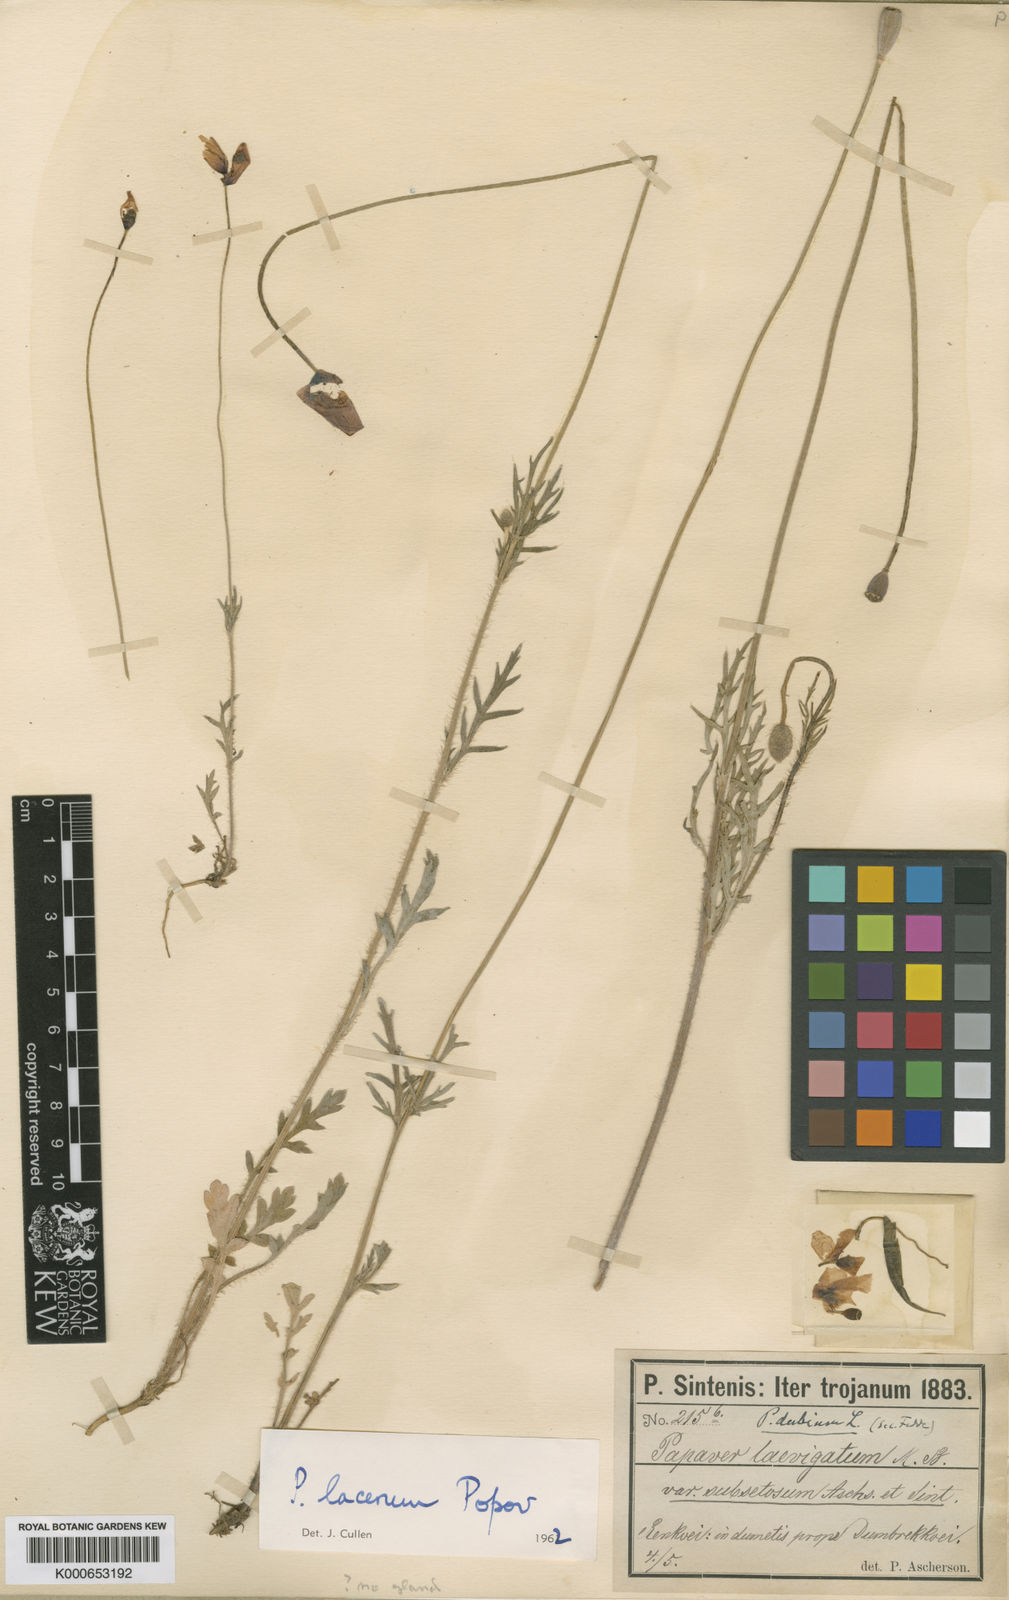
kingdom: Plantae
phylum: Tracheophyta
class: Magnoliopsida
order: Ranunculales
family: Papaveraceae
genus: Papaver
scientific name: Papaver laevigatum
